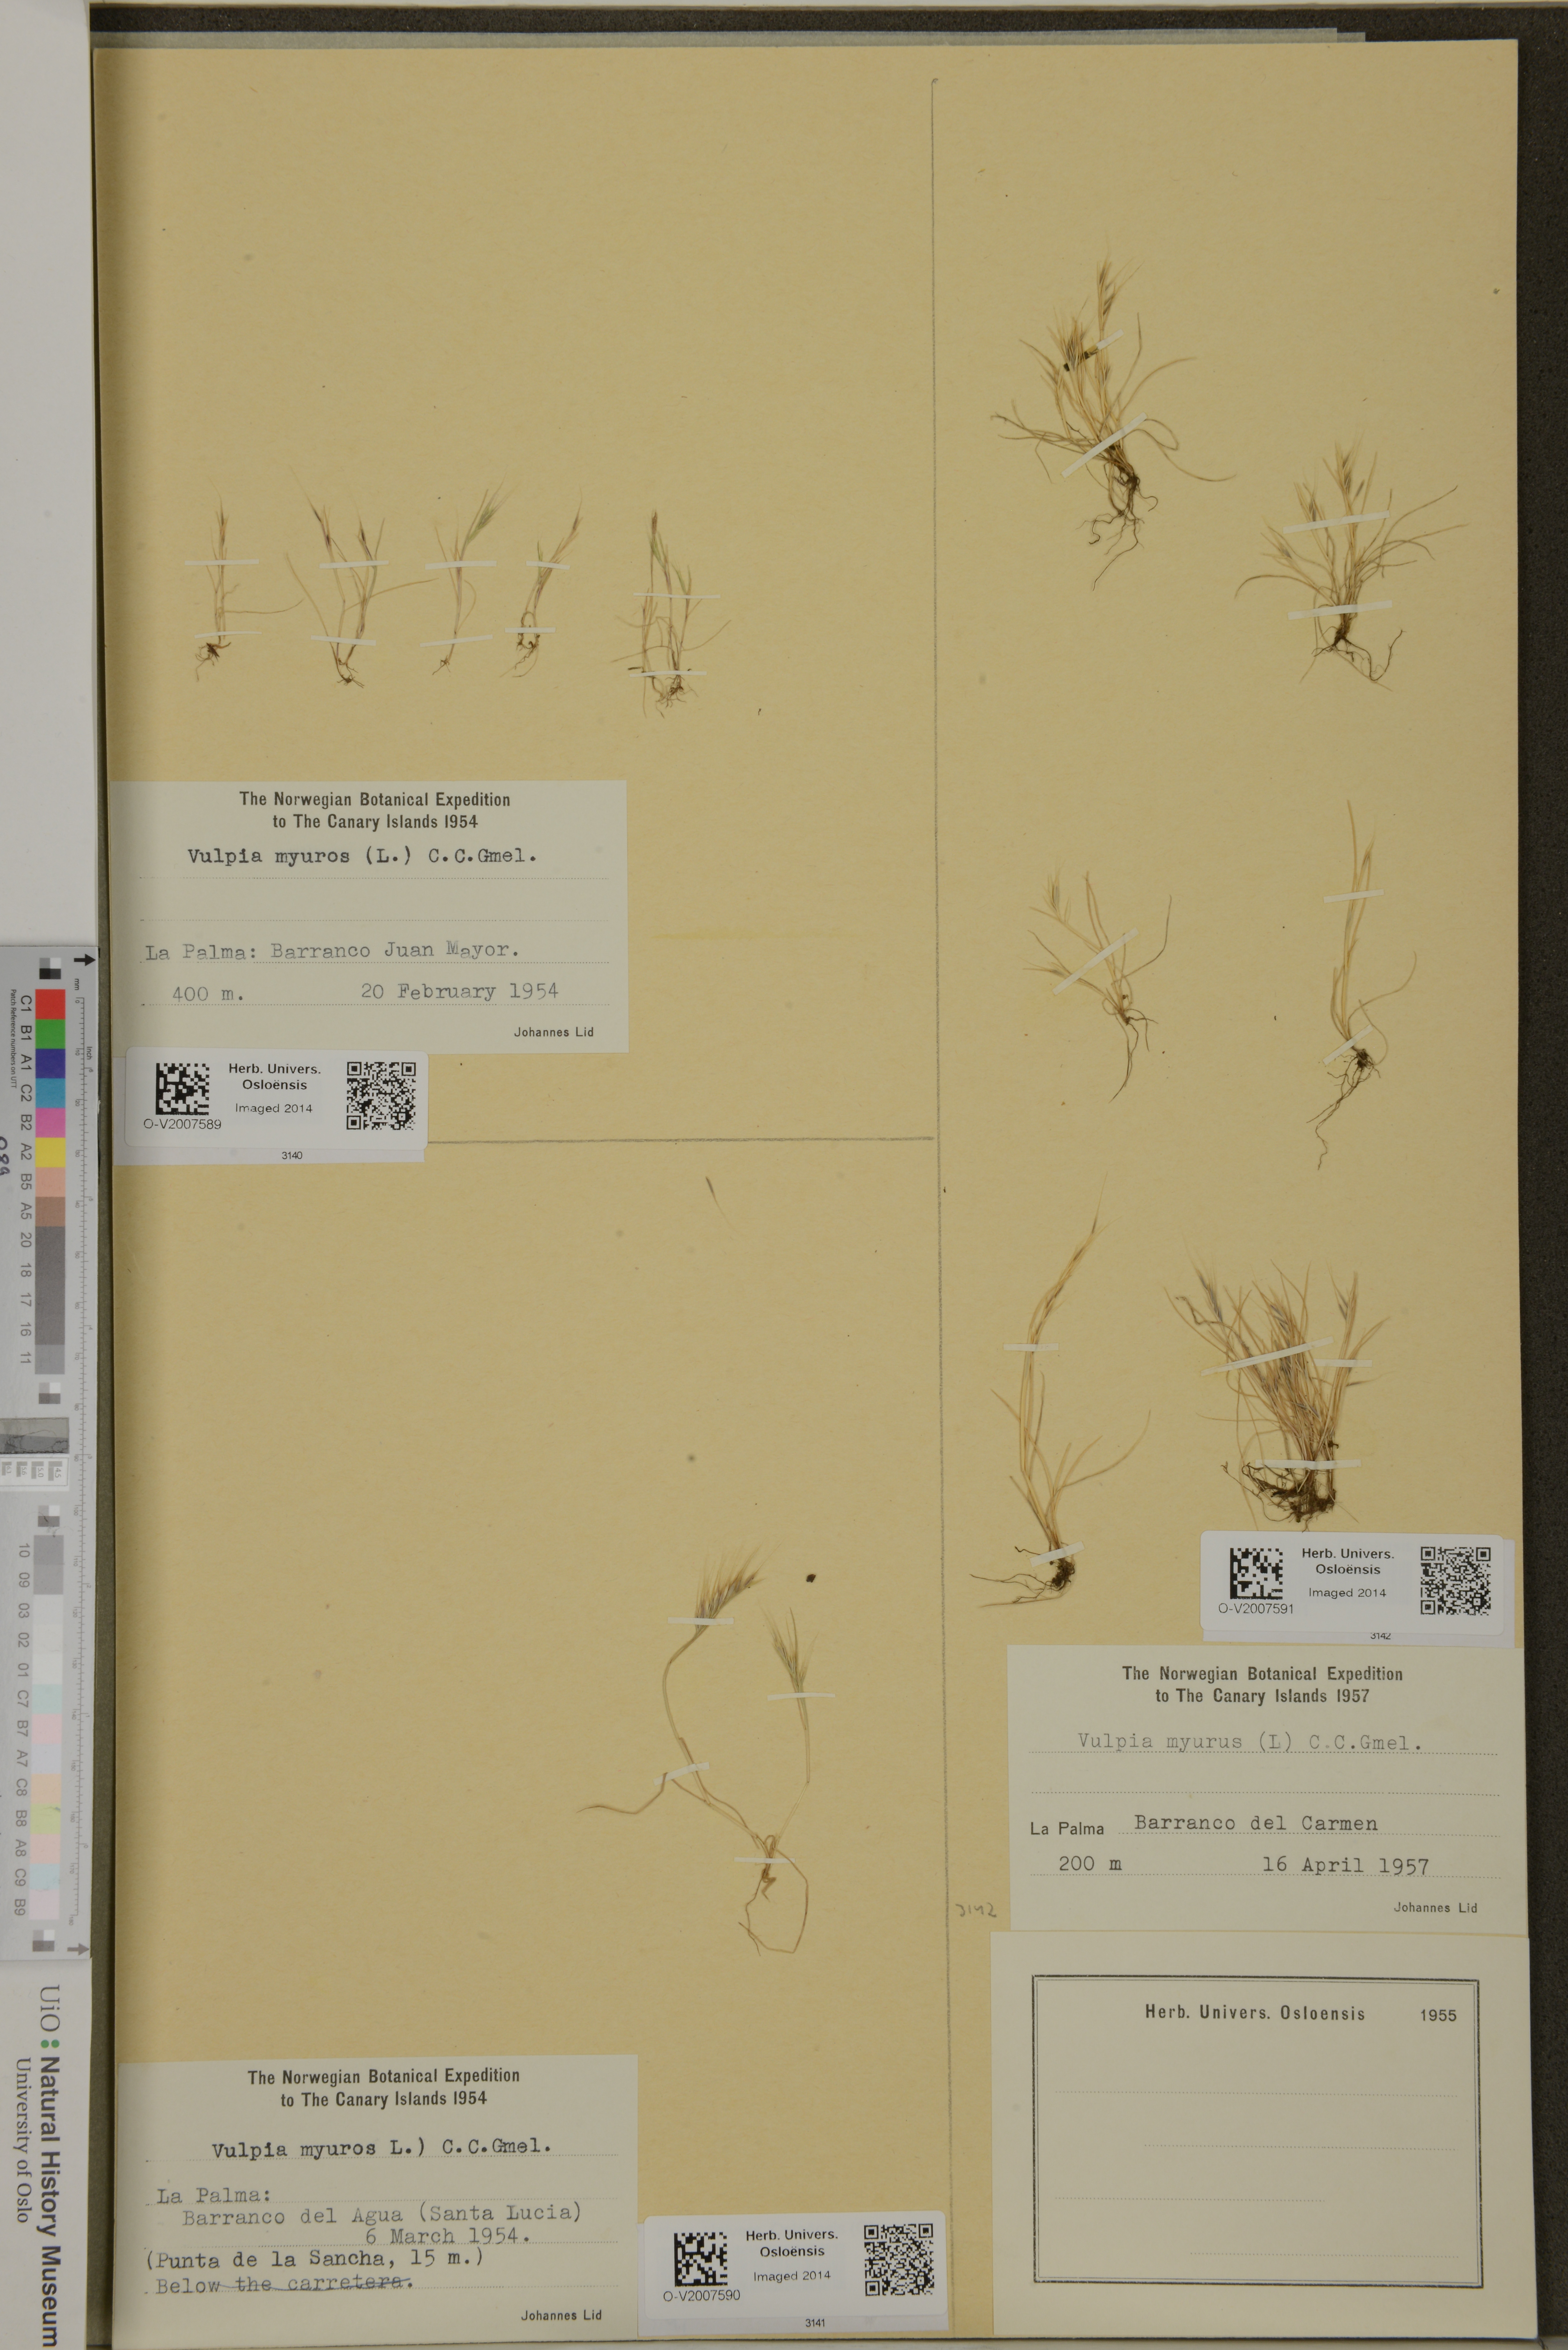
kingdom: Plantae
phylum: Tracheophyta
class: Liliopsida
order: Poales
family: Poaceae
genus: Festuca
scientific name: Festuca myuros
